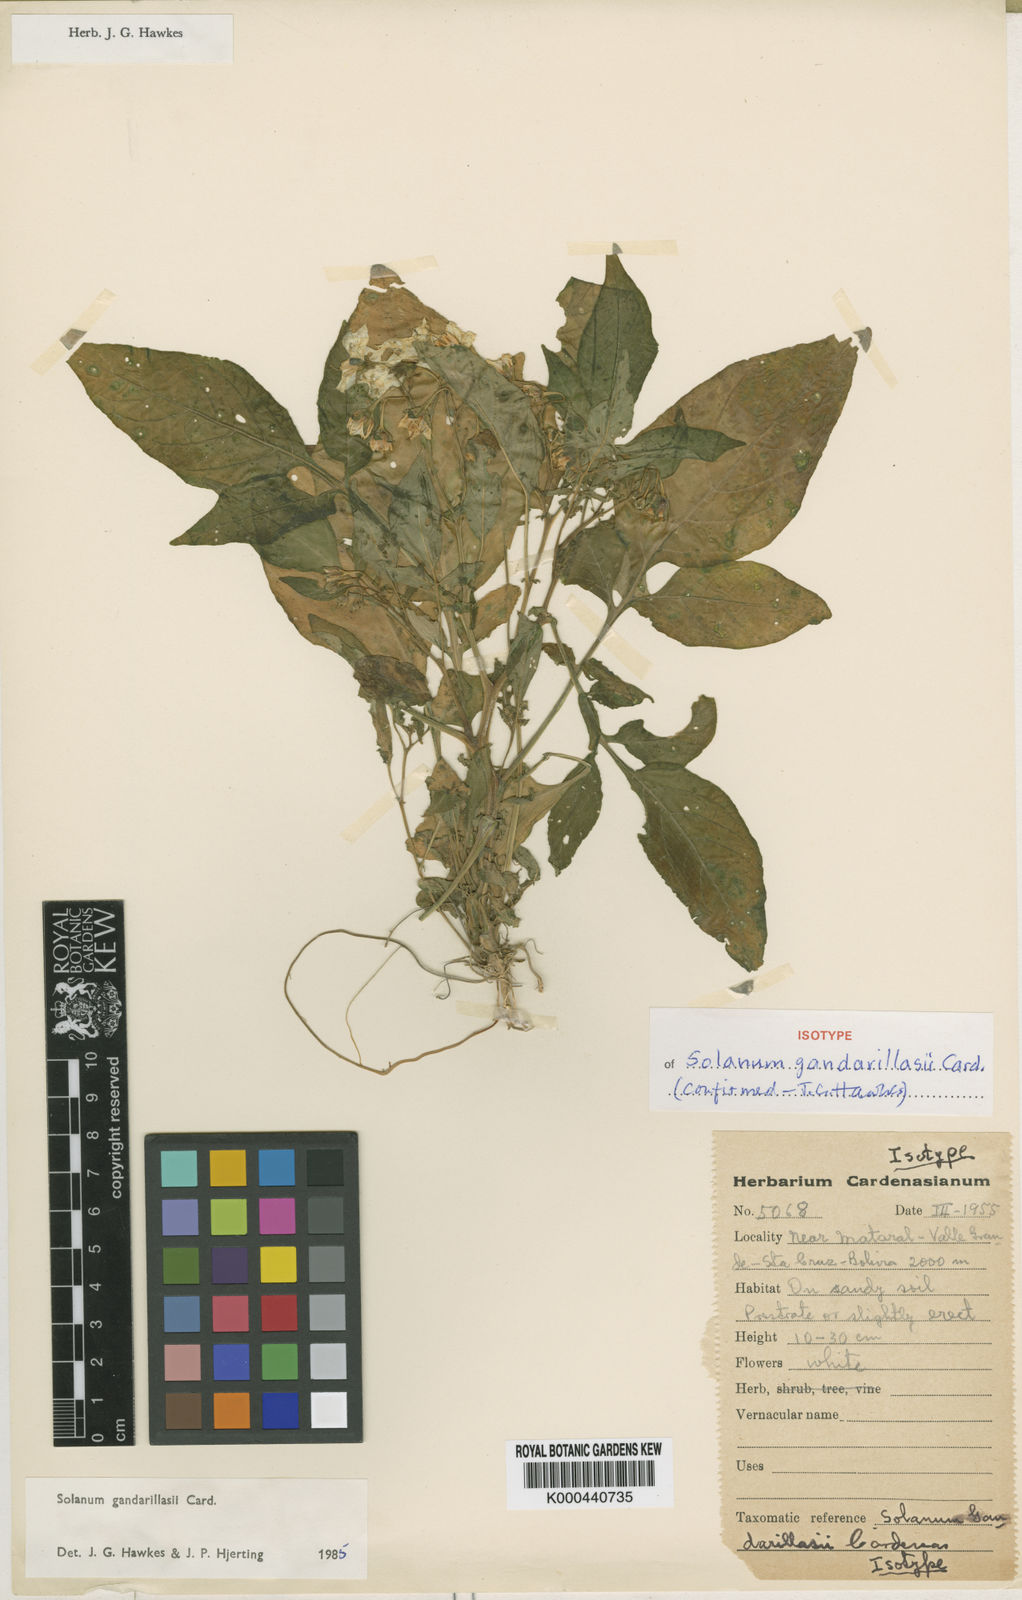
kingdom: Plantae
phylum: Tracheophyta
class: Magnoliopsida
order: Solanales
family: Solanaceae
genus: Solanum
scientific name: Solanum
